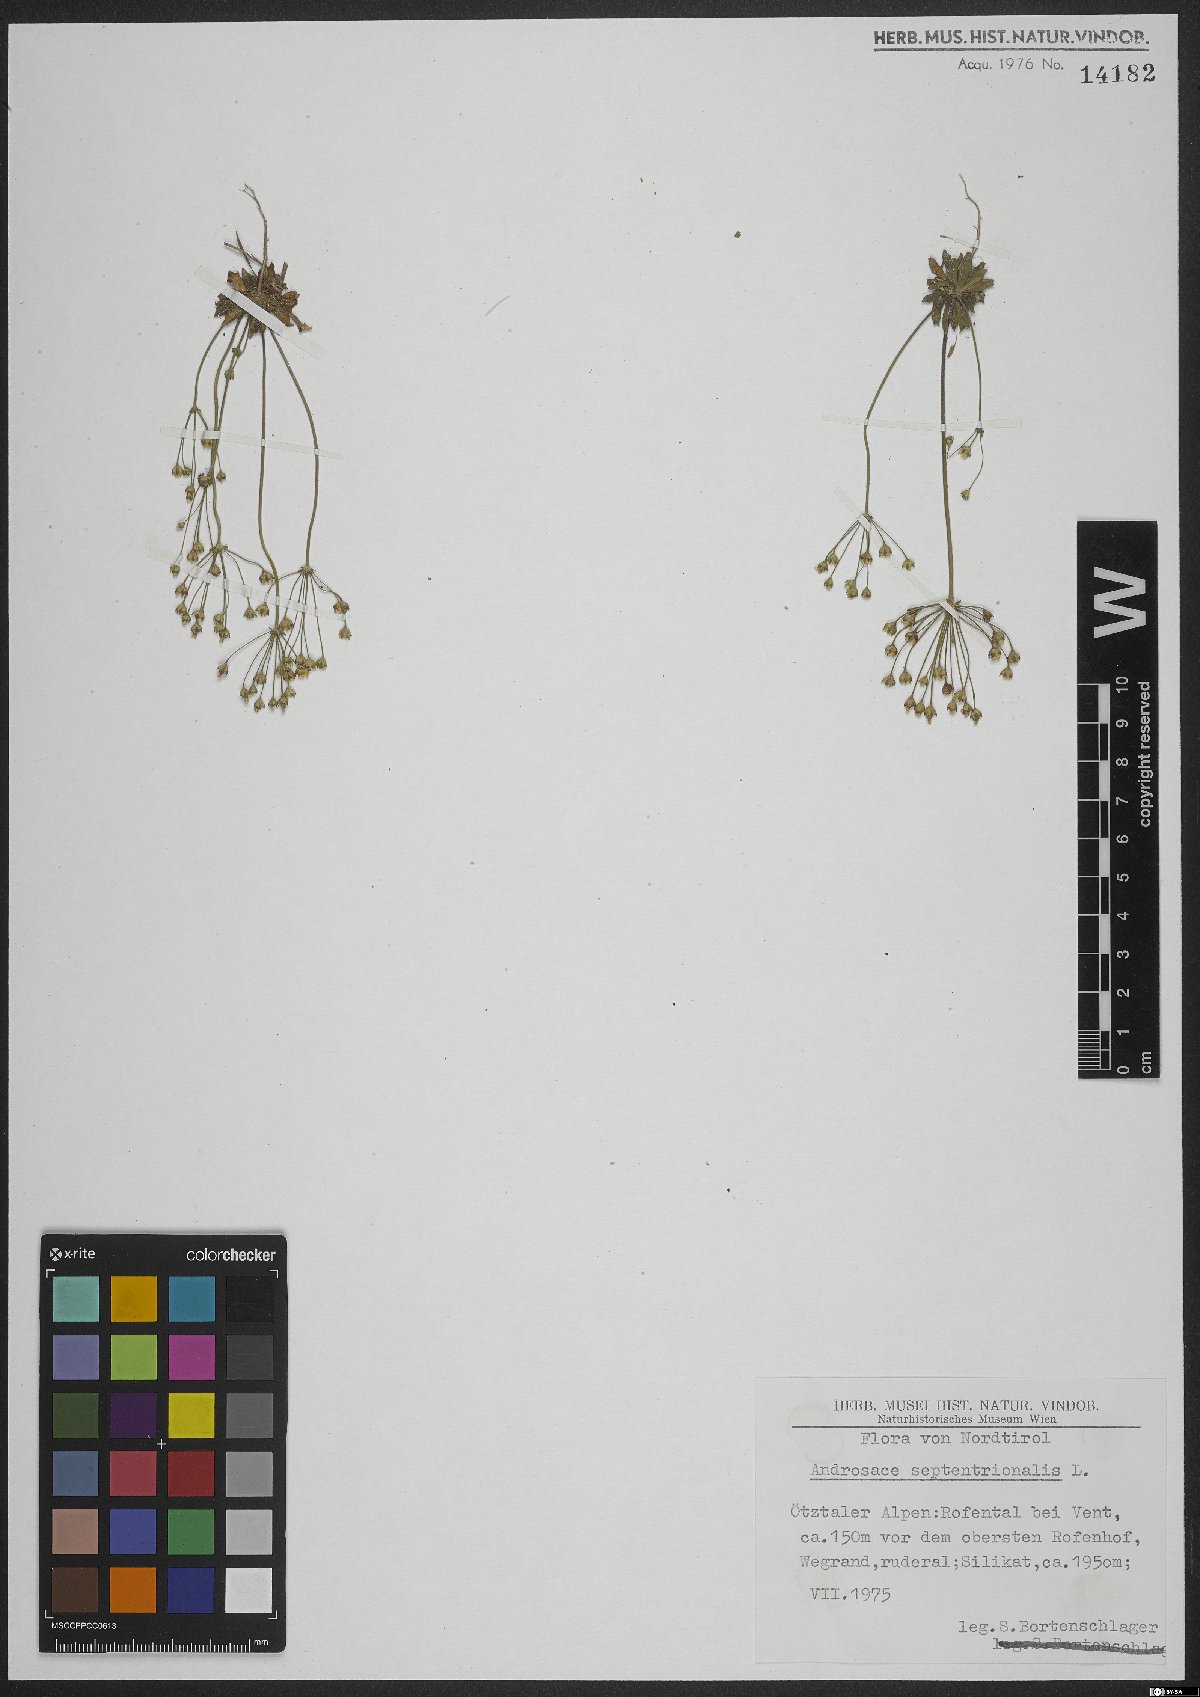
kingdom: Plantae
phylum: Tracheophyta
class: Magnoliopsida
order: Ericales
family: Primulaceae
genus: Androsace
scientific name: Androsace septentrionalis
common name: Hairy northern fairy-candelabra
